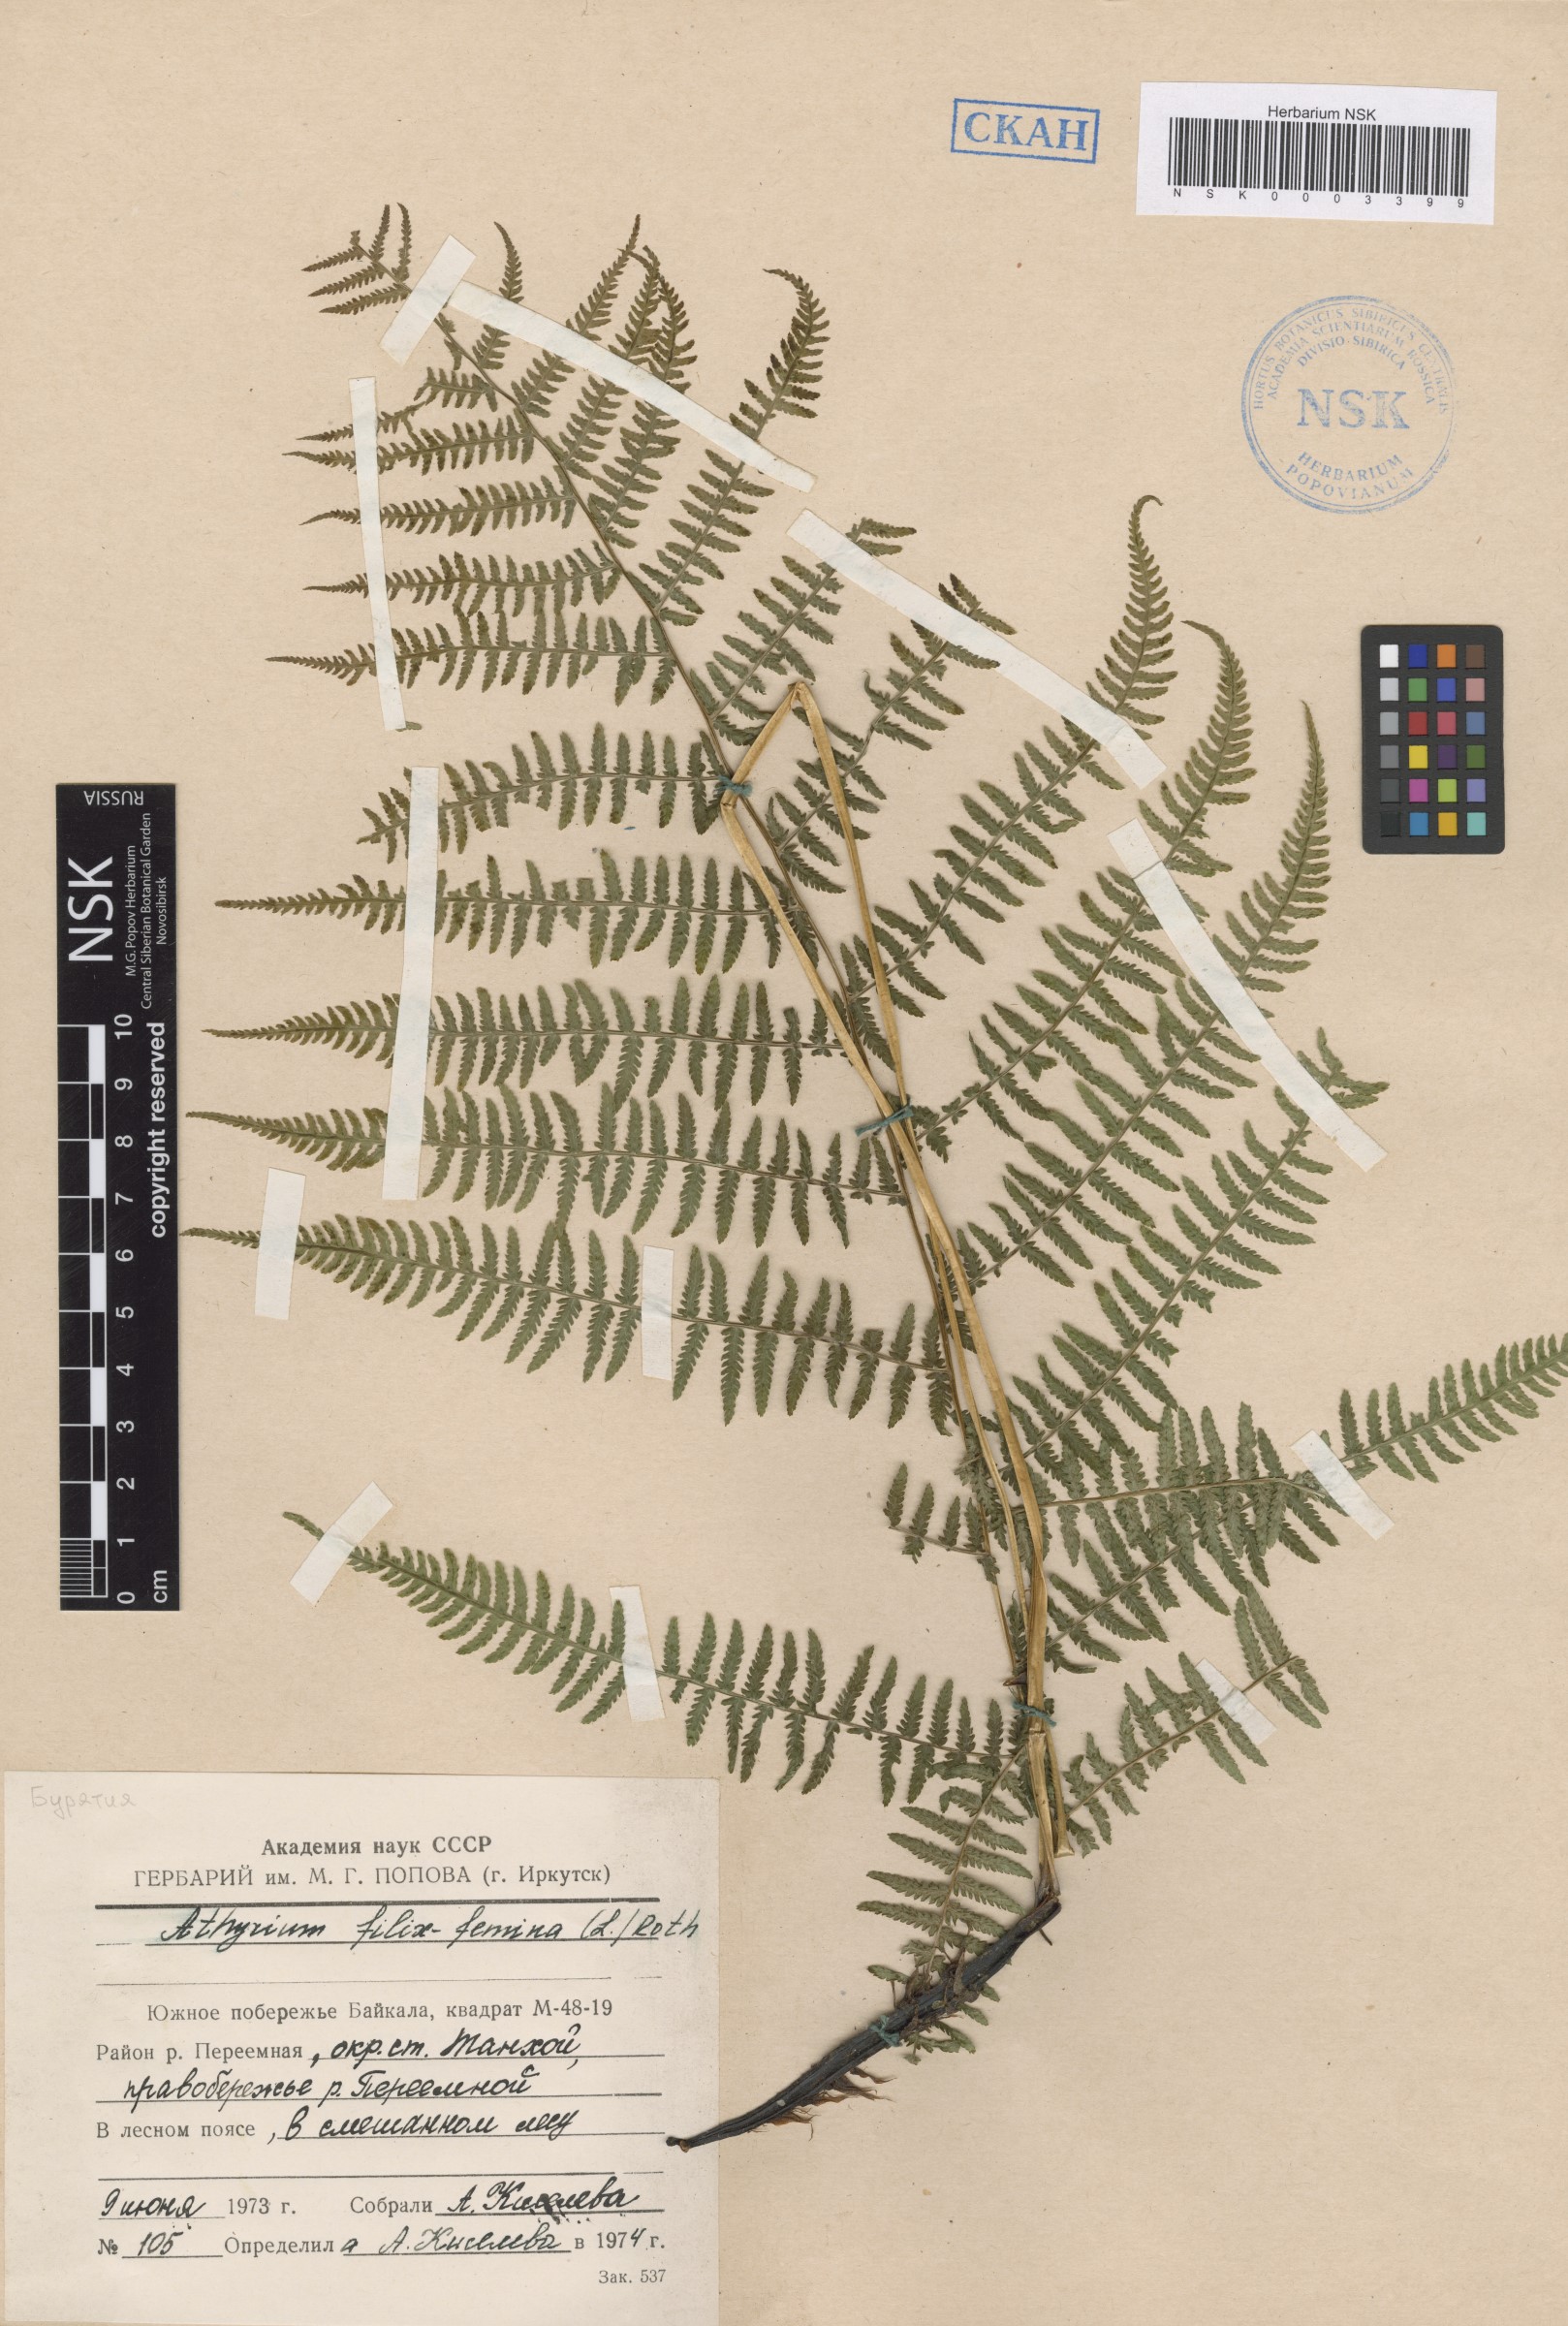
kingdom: Plantae
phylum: Tracheophyta
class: Polypodiopsida
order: Polypodiales
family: Athyriaceae
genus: Athyrium
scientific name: Athyrium filix-femina
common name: Lady fern
